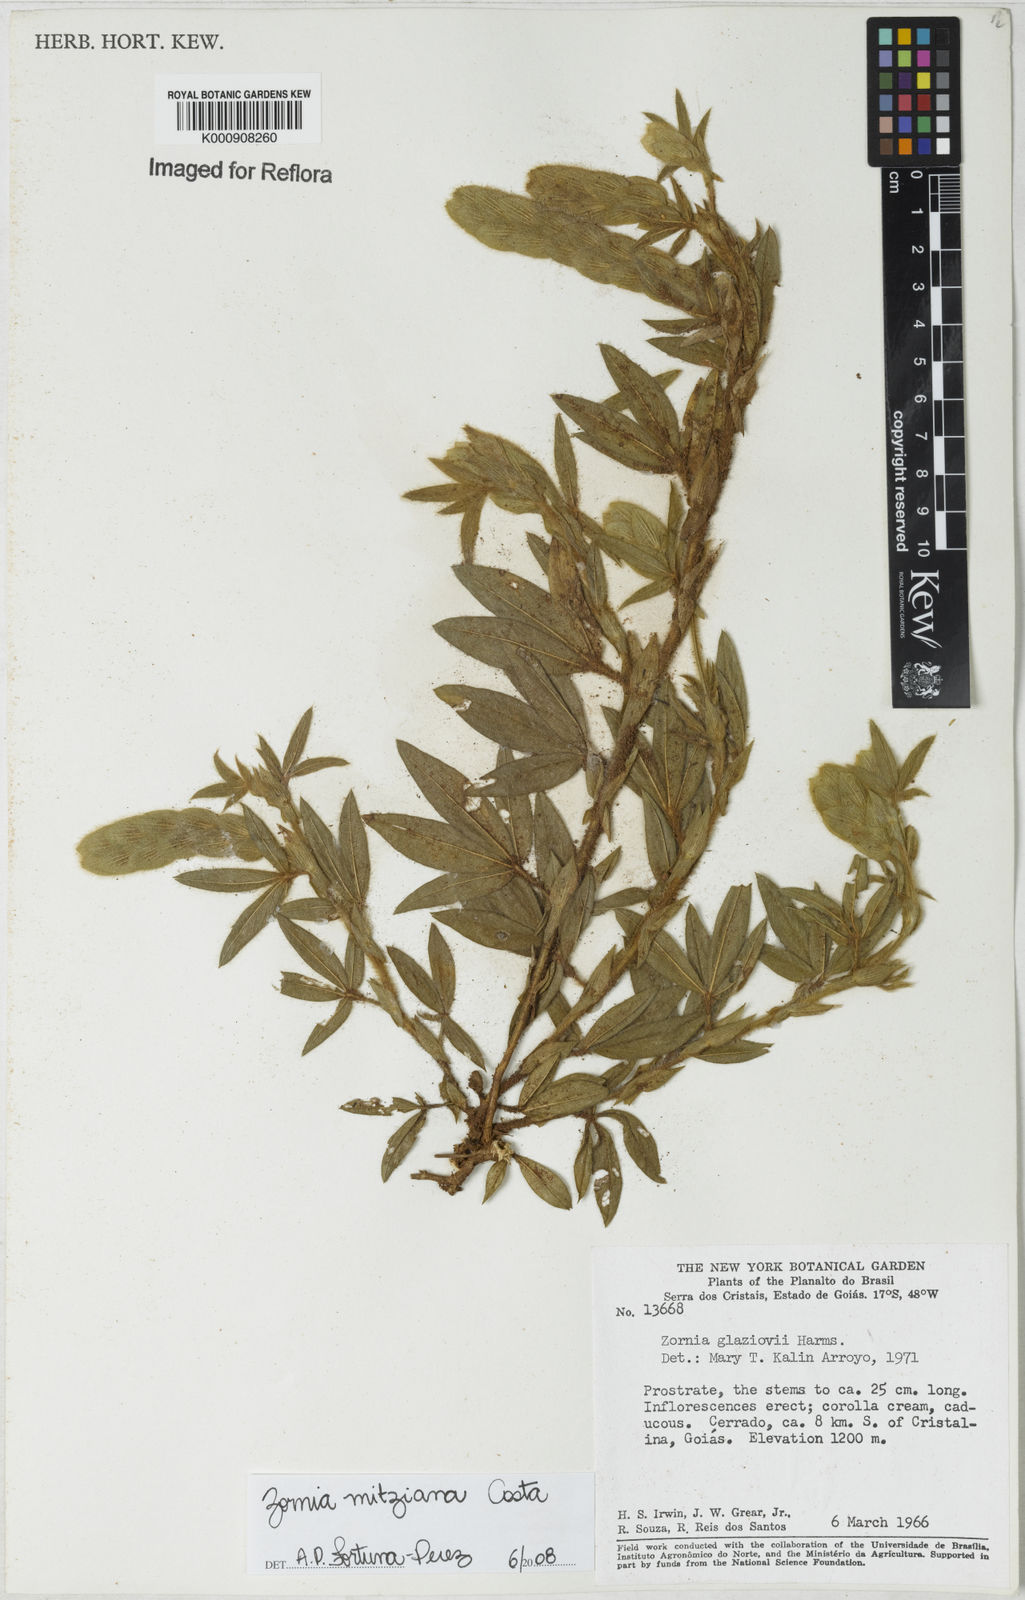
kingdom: Plantae
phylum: Tracheophyta
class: Magnoliopsida
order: Fabales
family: Fabaceae
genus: Zornia
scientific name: Zornia mitziana
